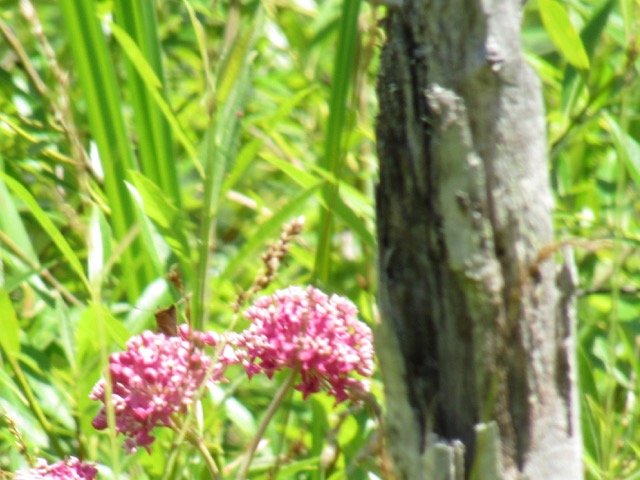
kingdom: Animalia
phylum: Arthropoda
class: Insecta
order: Lepidoptera
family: Hesperiidae
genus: Euphyes
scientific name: Euphyes dion
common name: Dion Skipper
